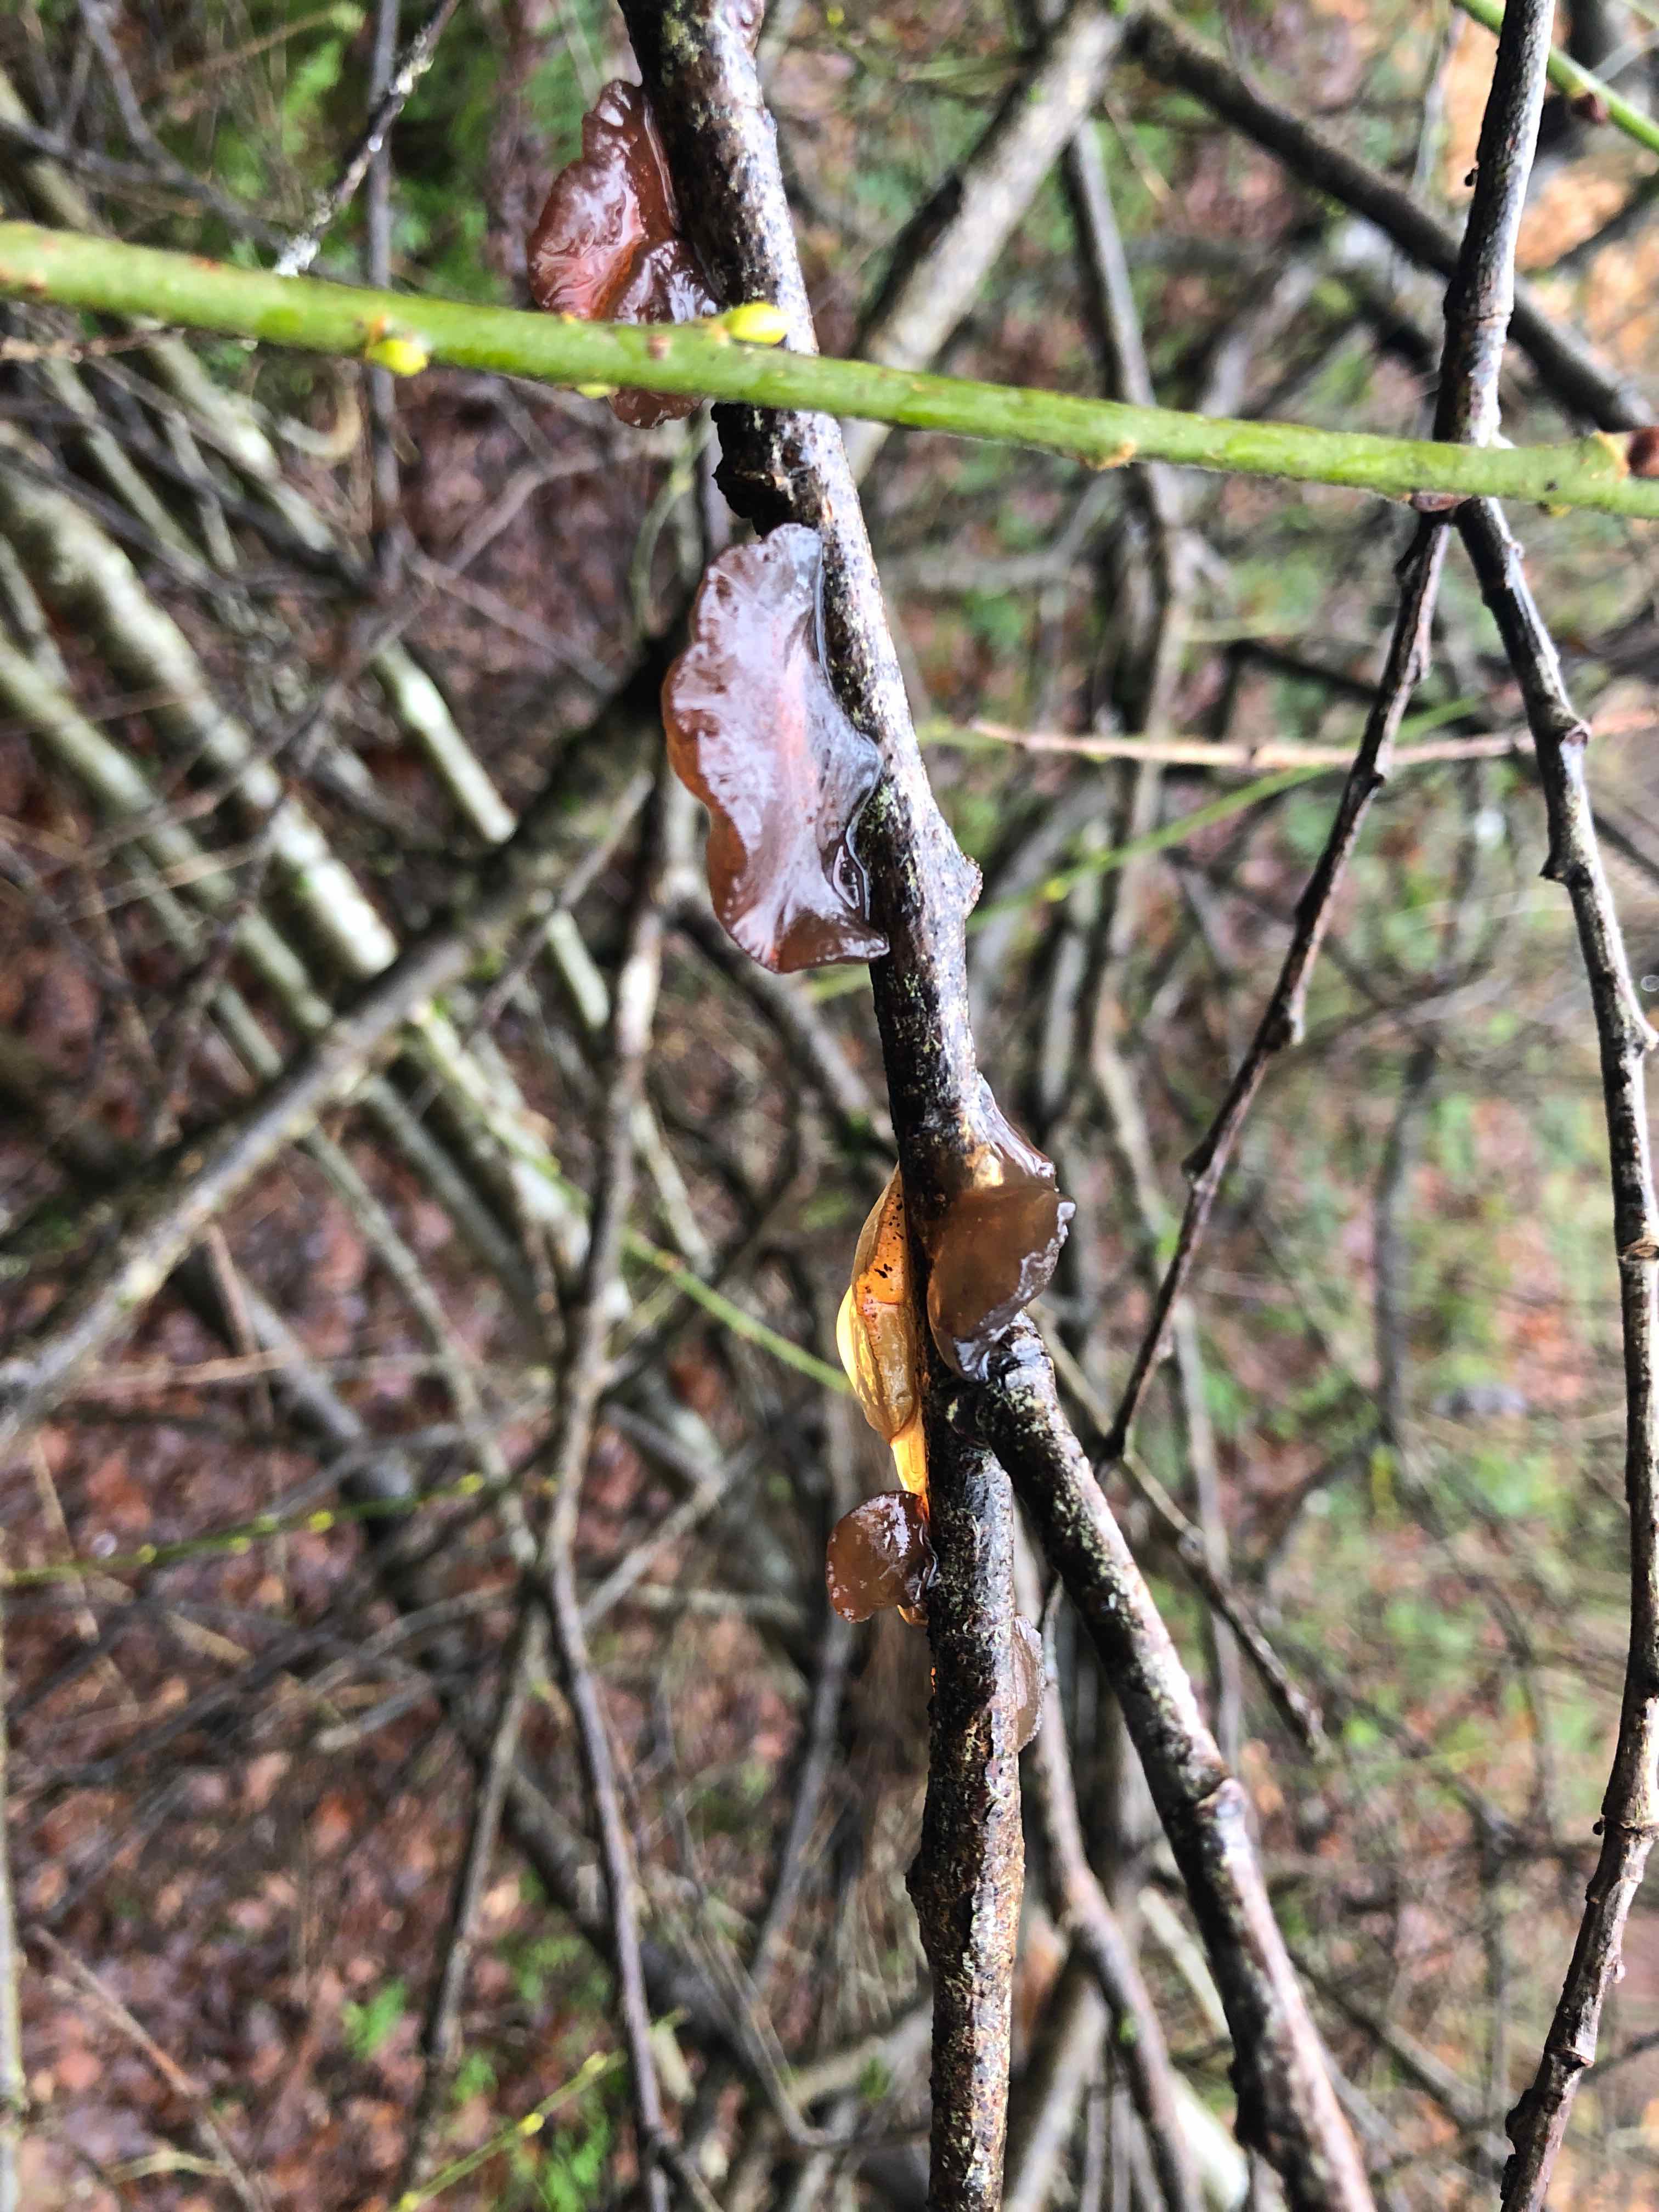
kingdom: Fungi
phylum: Basidiomycota
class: Agaricomycetes
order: Auriculariales
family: Auriculariaceae
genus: Exidia
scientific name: Exidia recisa
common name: pile-bævretop
